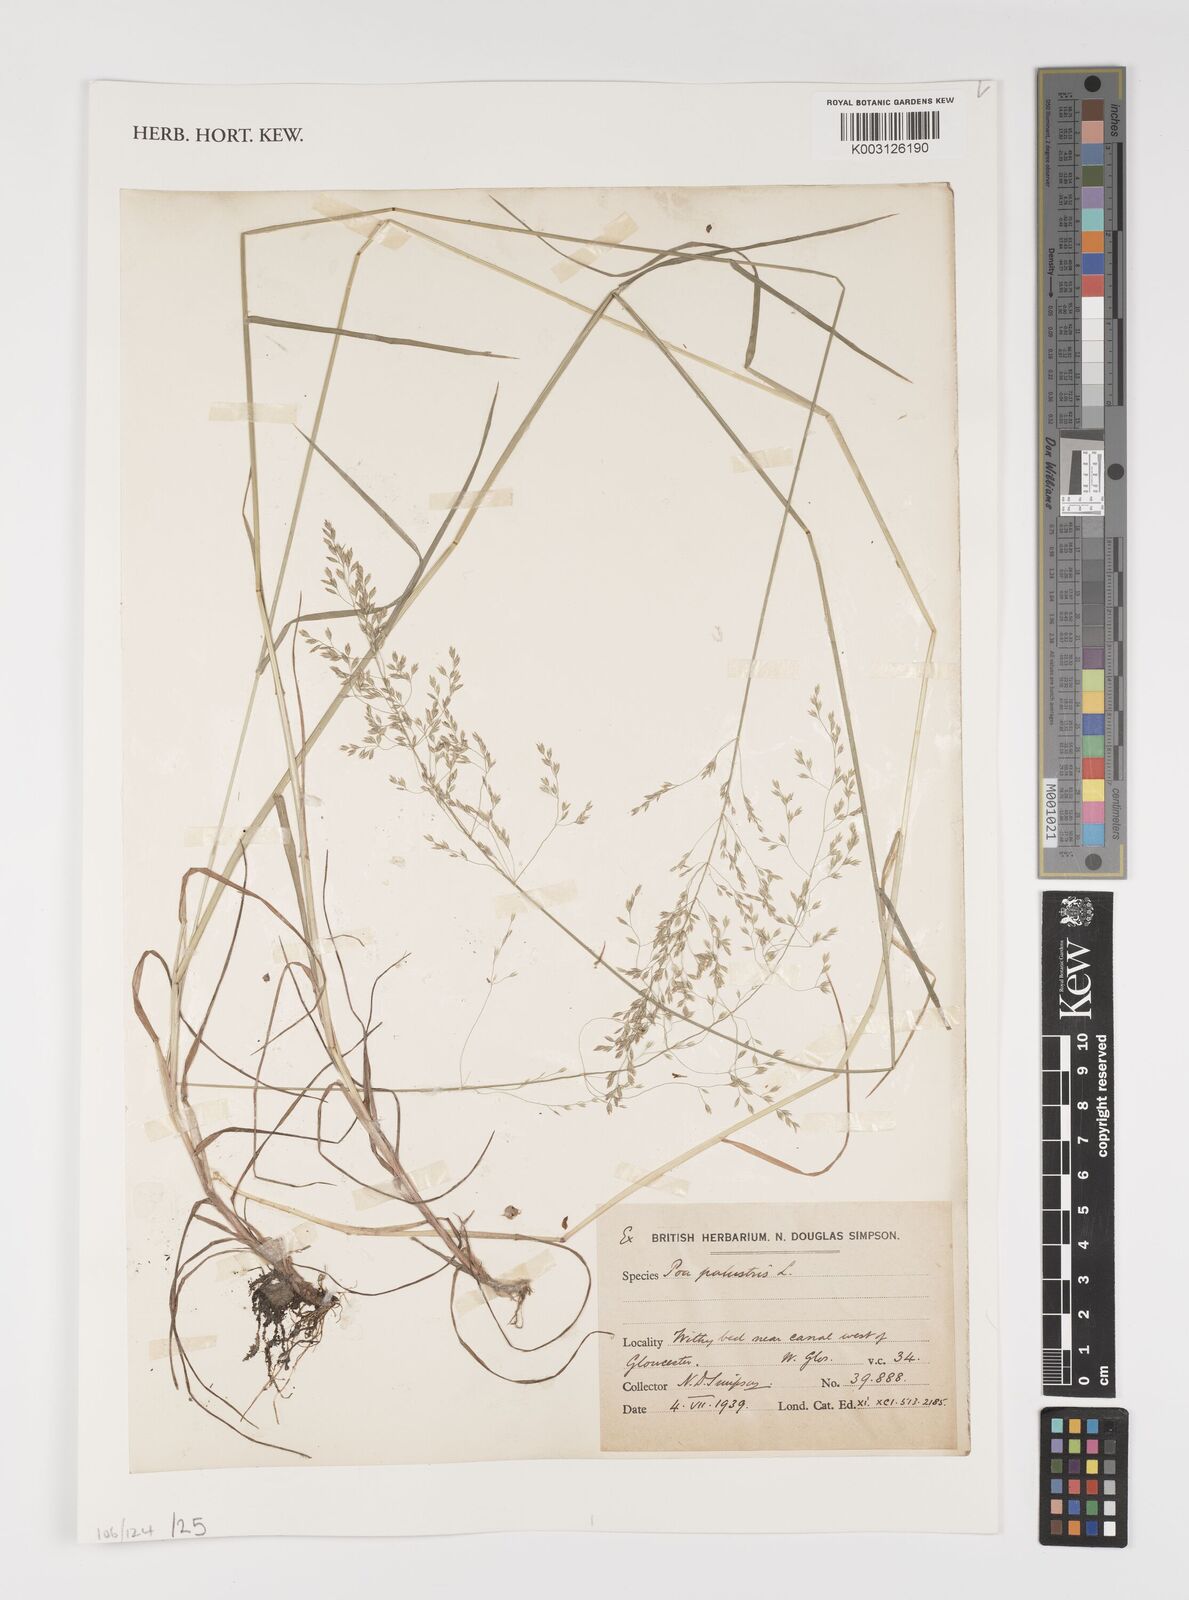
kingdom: Plantae
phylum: Tracheophyta
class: Liliopsida
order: Poales
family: Poaceae
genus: Poa
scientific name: Poa palustris
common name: Swamp meadow-grass
